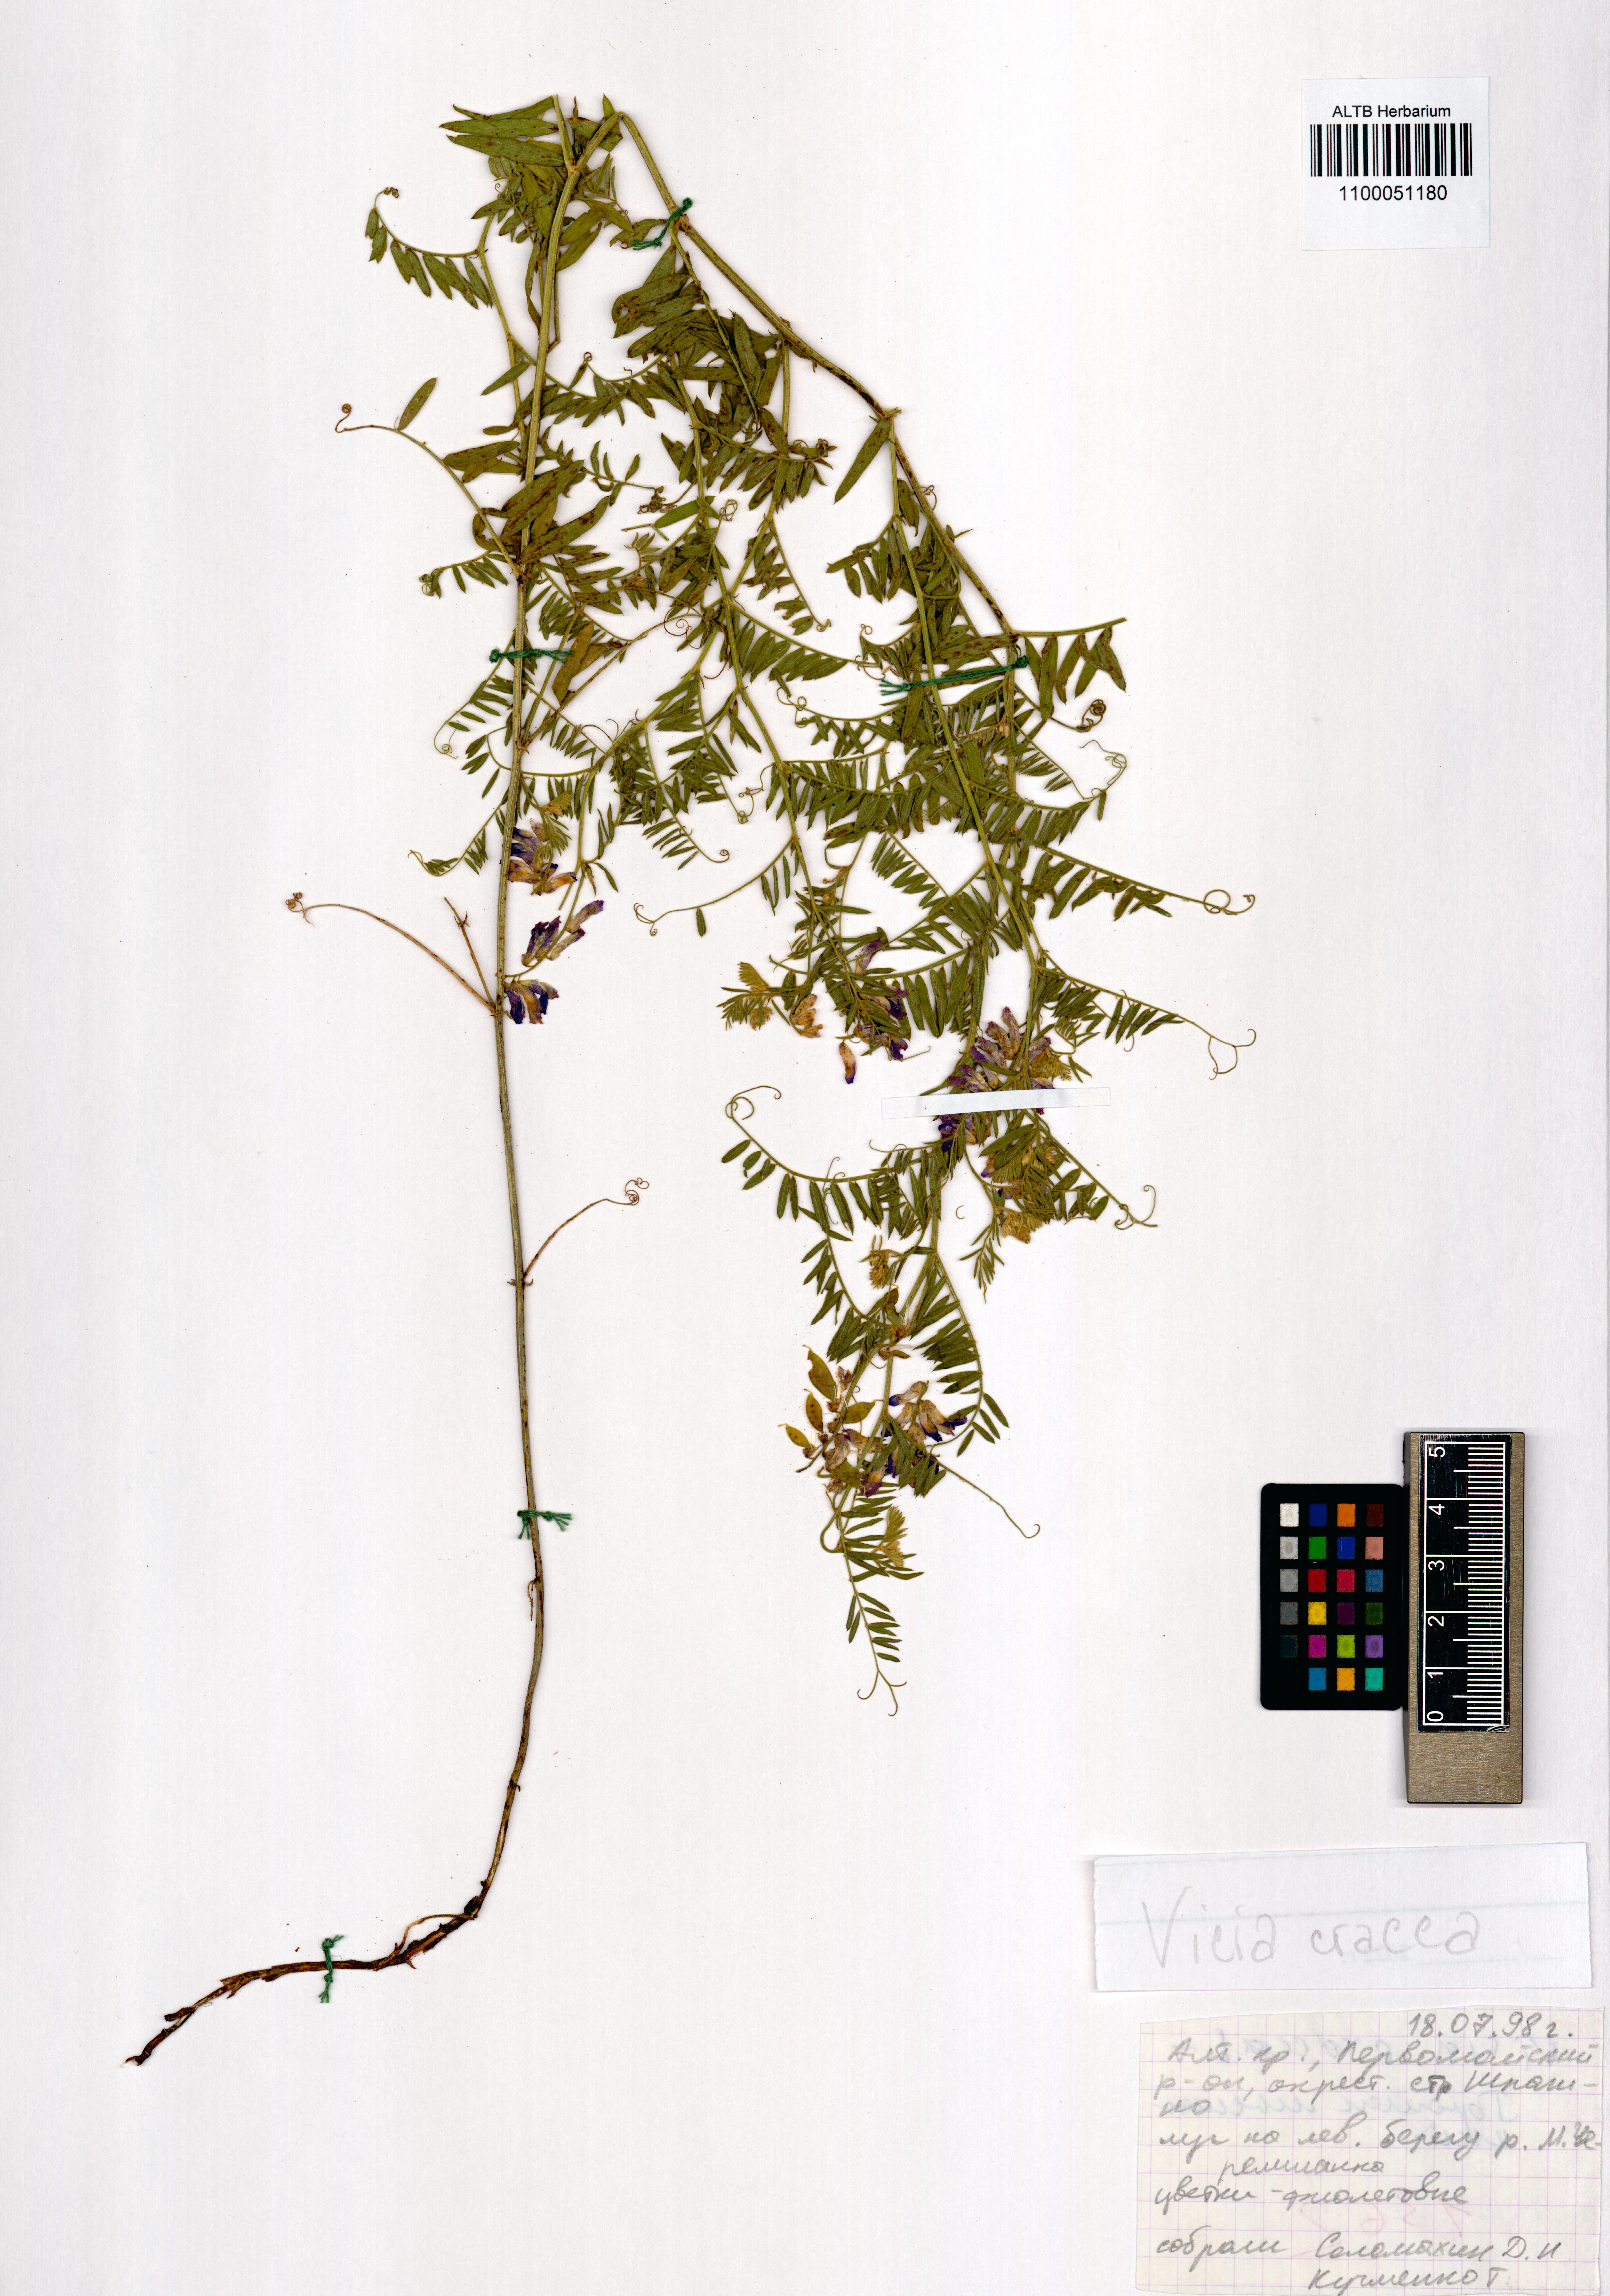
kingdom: Plantae
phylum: Tracheophyta
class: Magnoliopsida
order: Fabales
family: Fabaceae
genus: Vicia
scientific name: Vicia cracca
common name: Bird vetch
